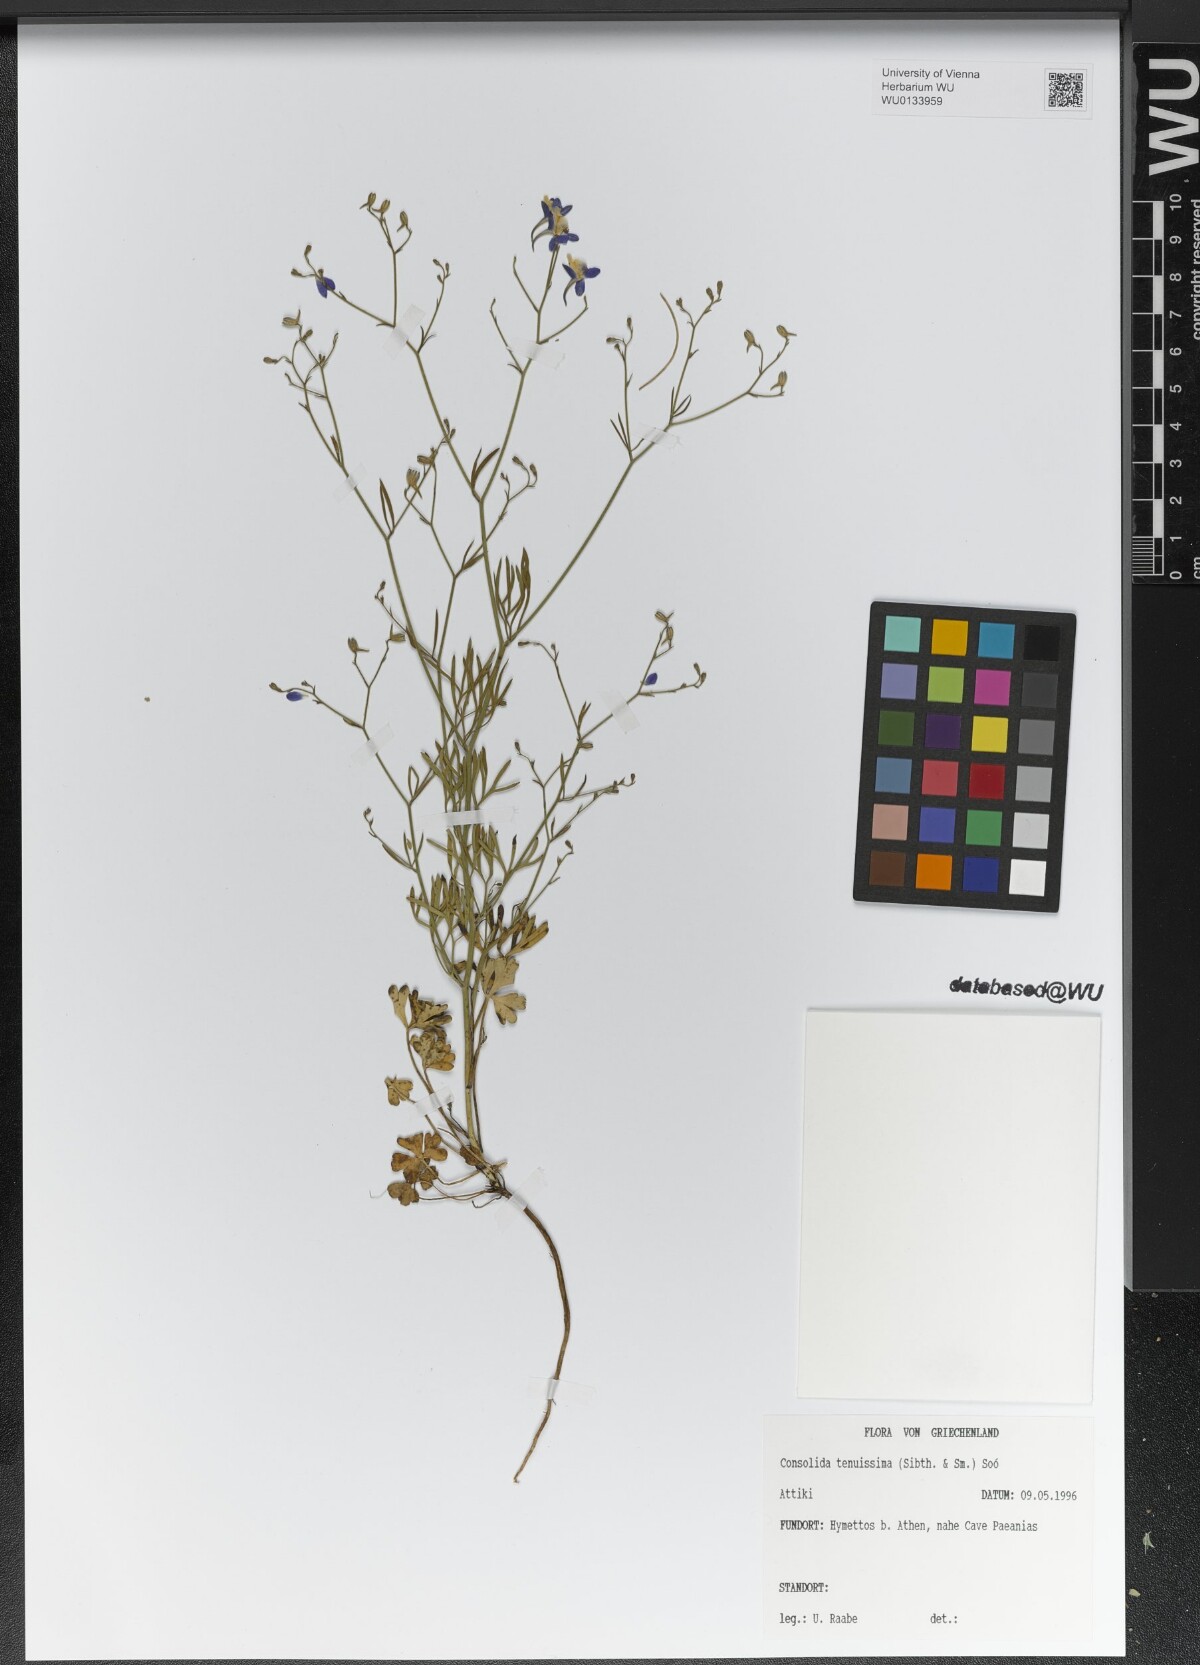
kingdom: Plantae
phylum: Tracheophyta
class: Magnoliopsida
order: Ranunculales
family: Ranunculaceae
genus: Delphinium
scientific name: Delphinium tenuissimum
